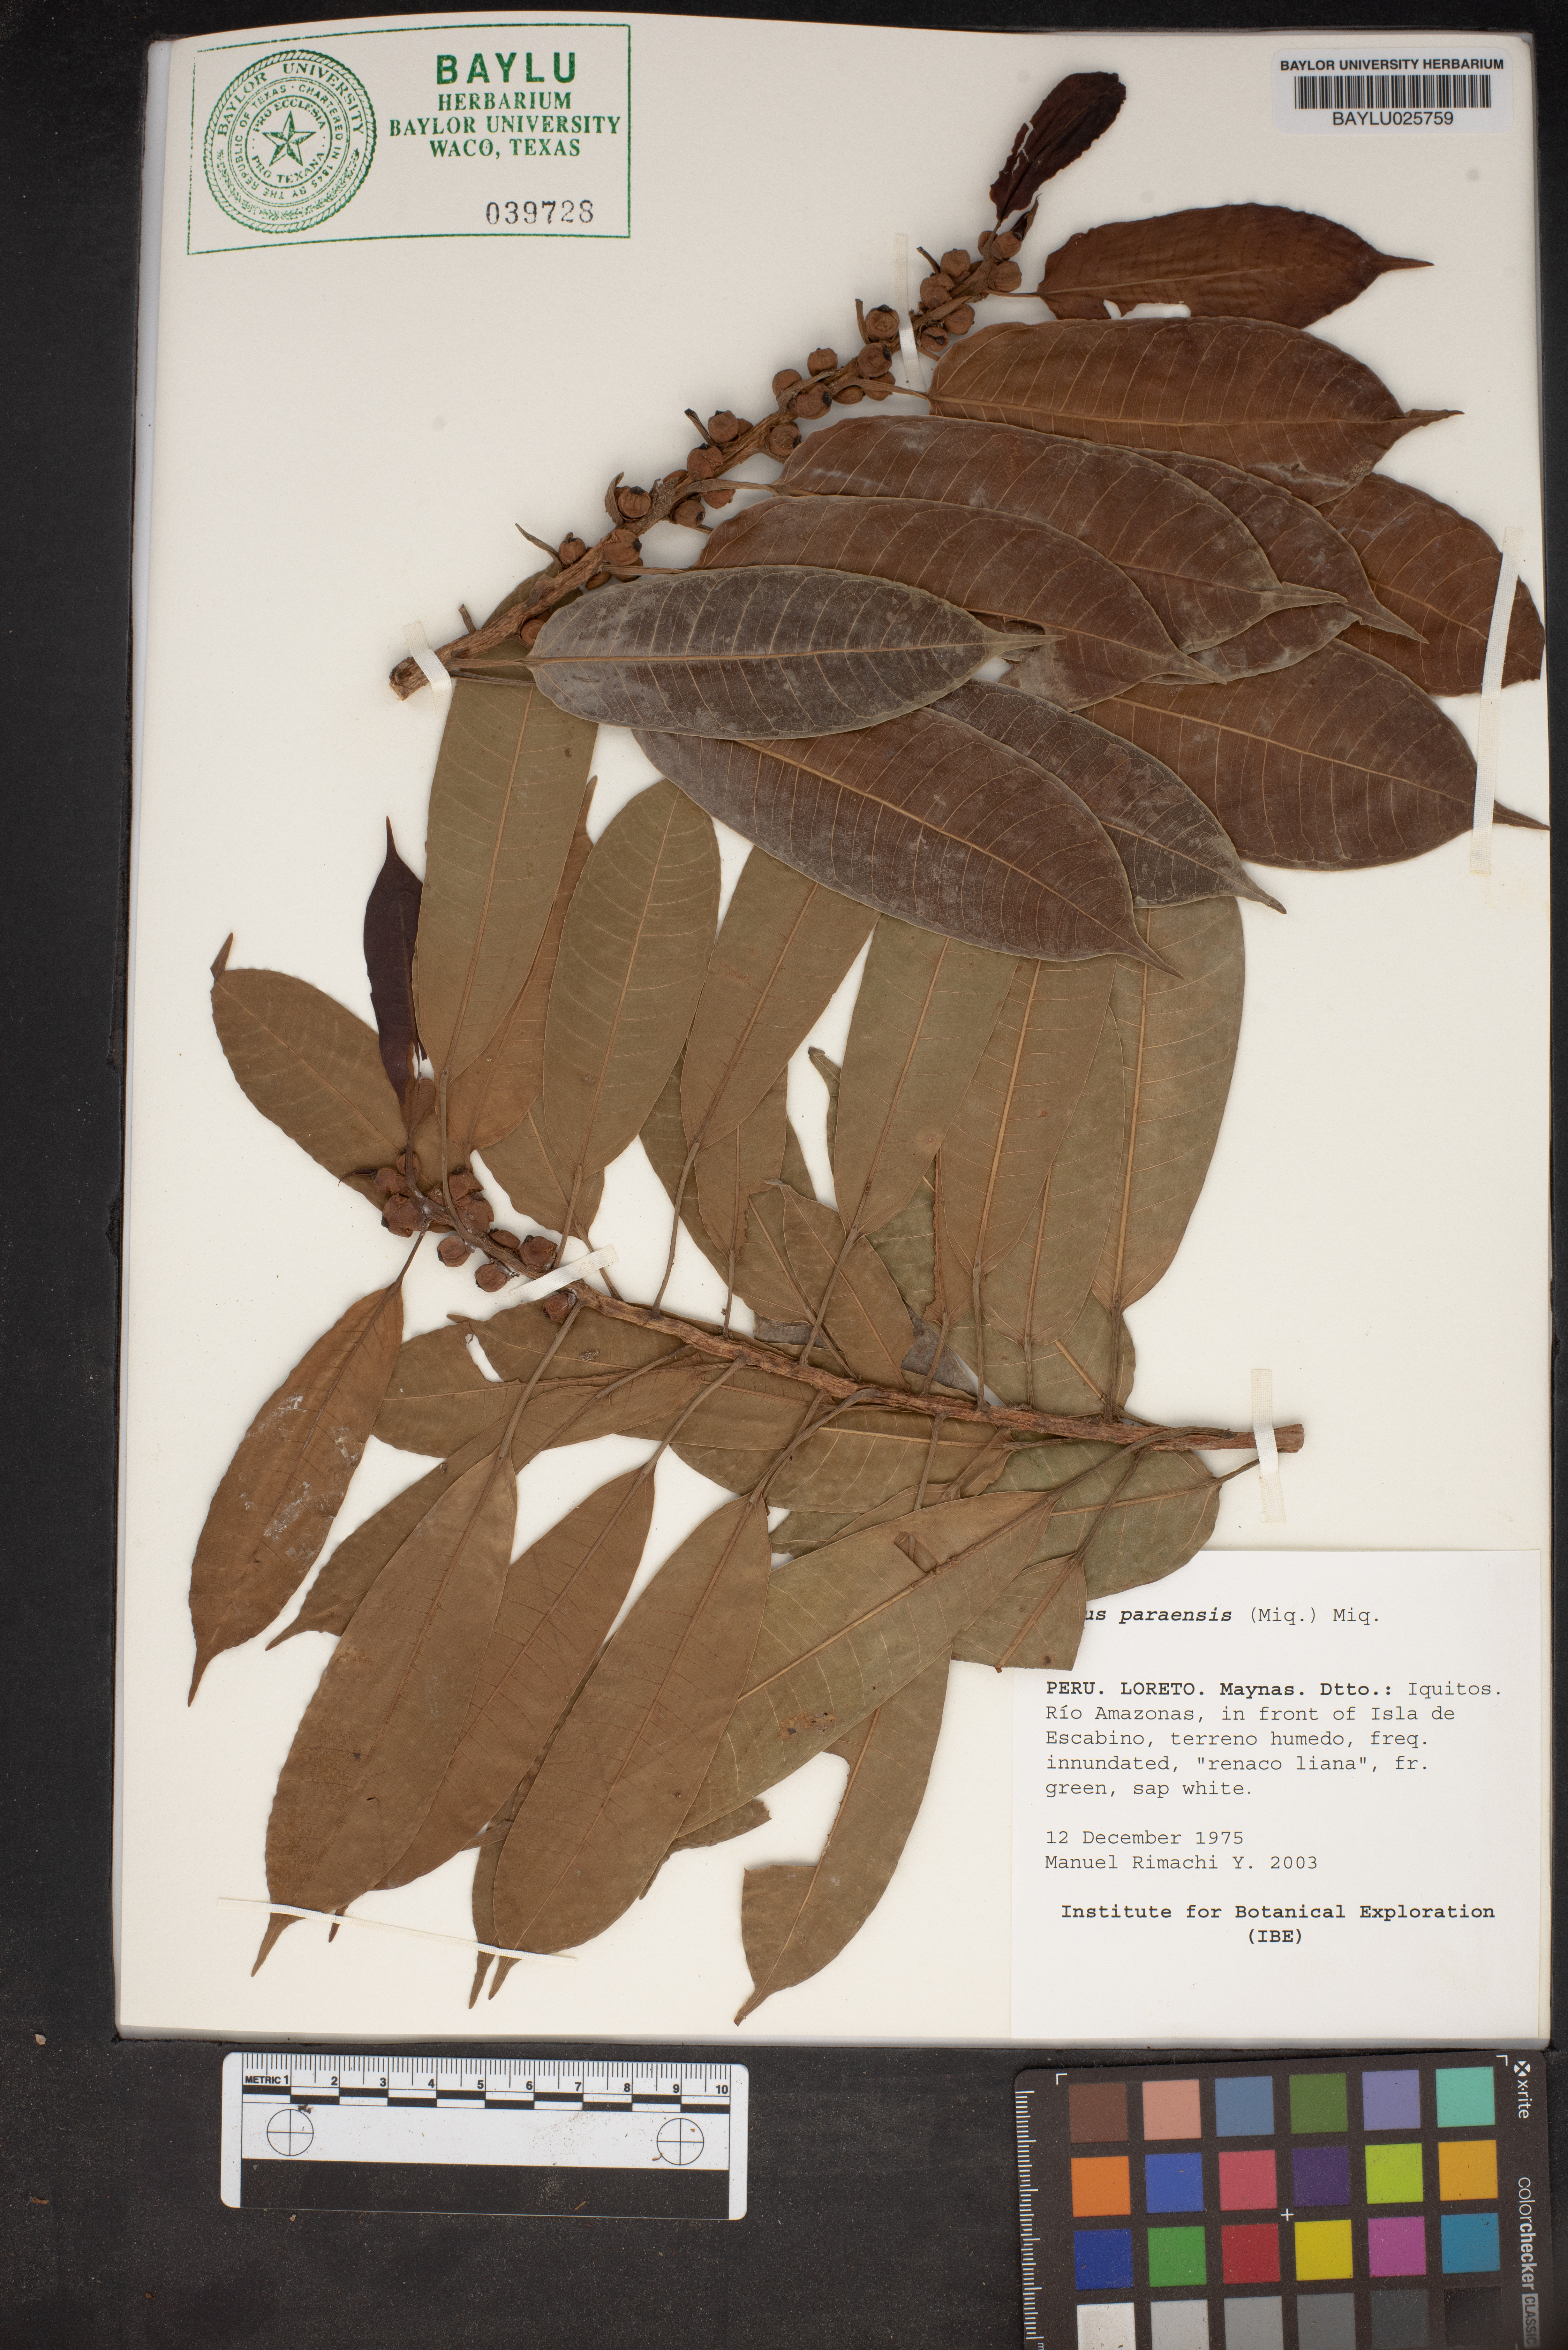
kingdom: Plantae
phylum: Tracheophyta
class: Magnoliopsida
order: Rosales
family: Moraceae
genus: Ficus
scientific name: Ficus paraensis
